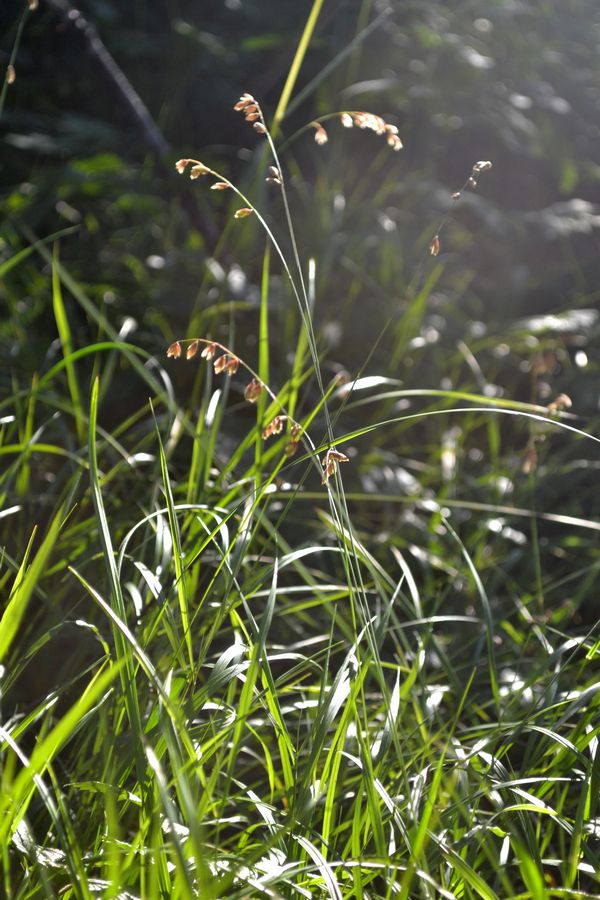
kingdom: Plantae
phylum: Tracheophyta
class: Liliopsida
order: Poales
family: Poaceae
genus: Melica
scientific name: Melica nutans
